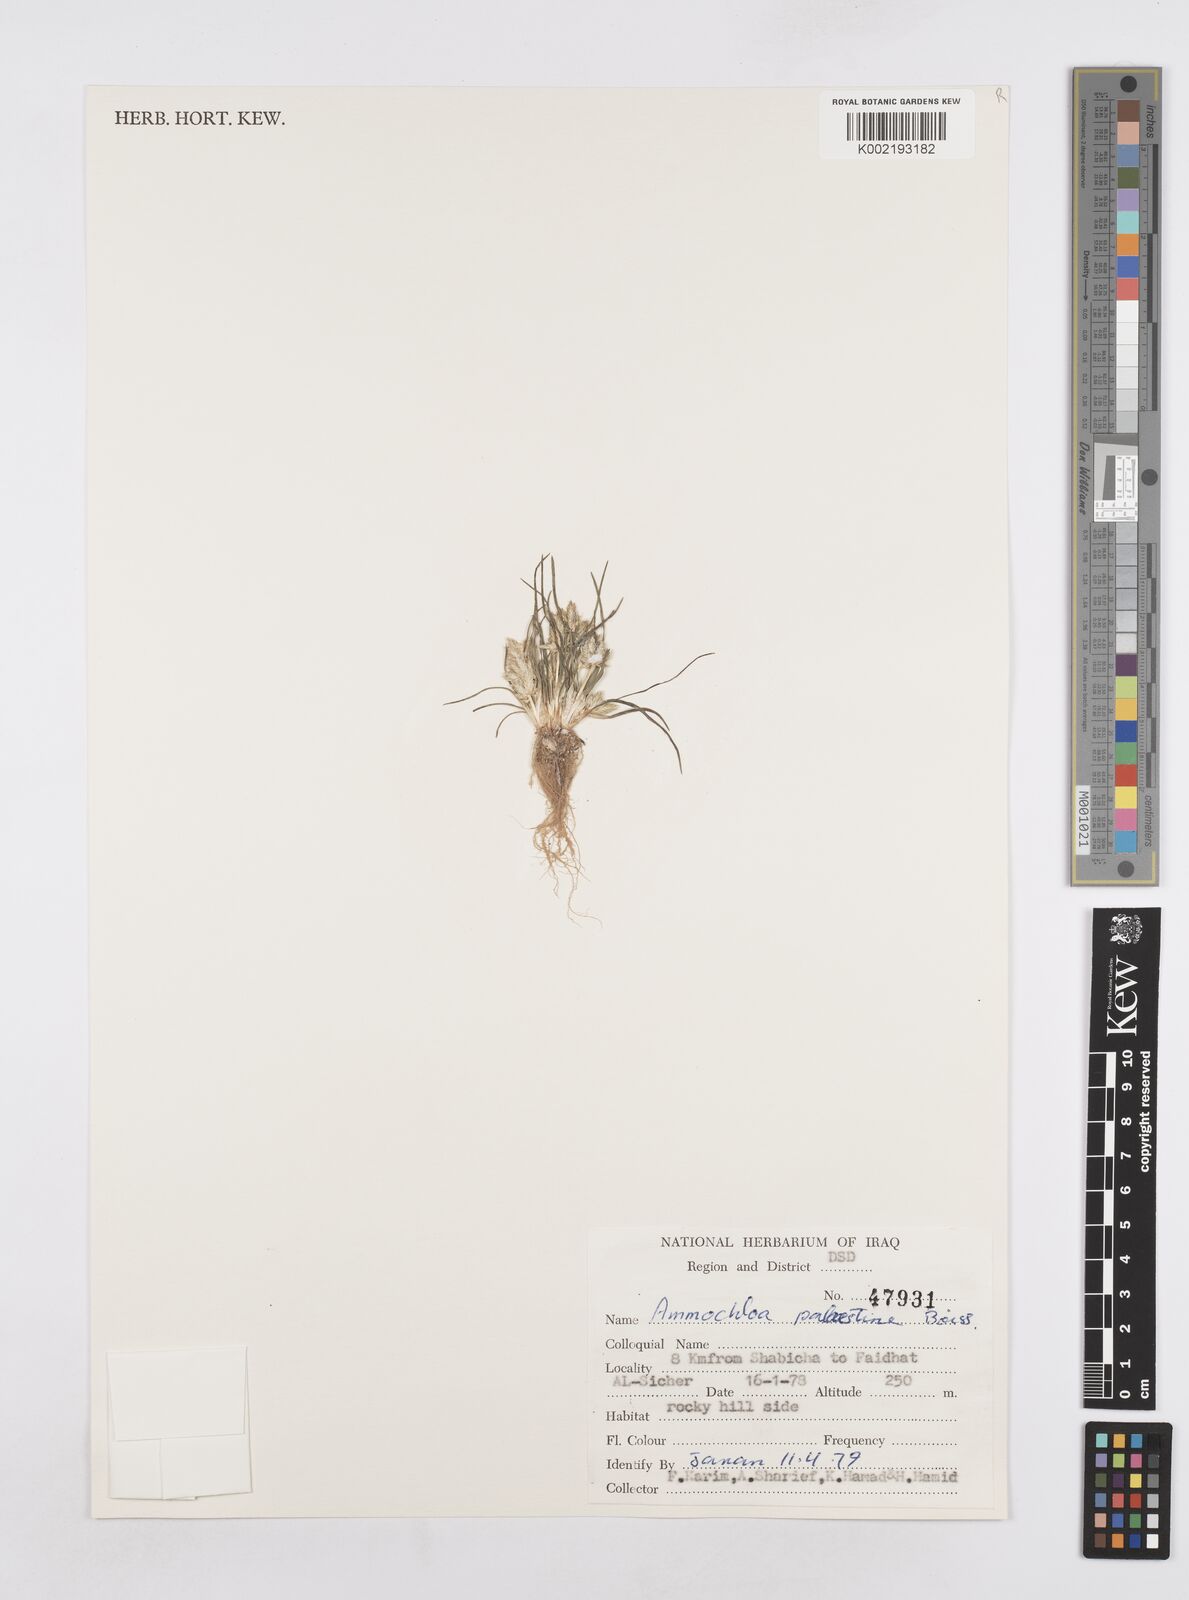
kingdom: Plantae
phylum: Tracheophyta
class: Liliopsida
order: Poales
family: Poaceae
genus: Ammochloa
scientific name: Ammochloa palaestina
